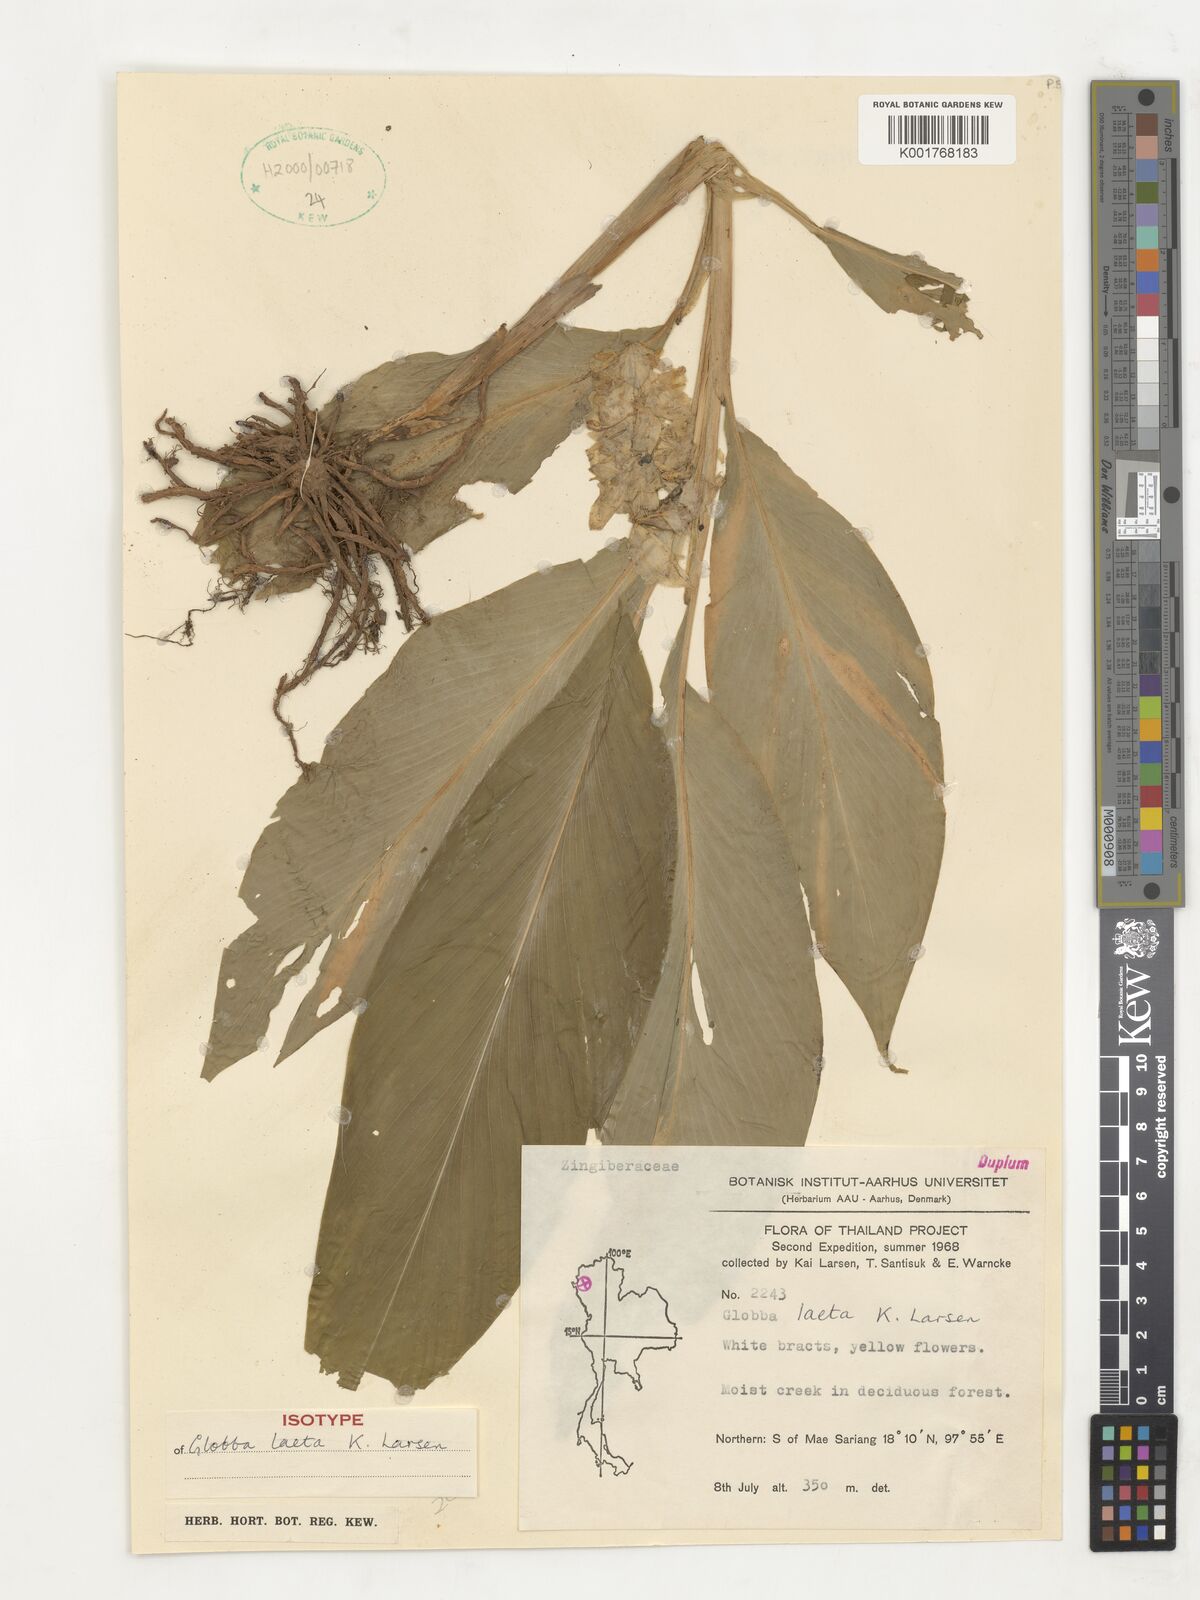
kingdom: Plantae
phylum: Tracheophyta
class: Liliopsida
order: Zingiberales
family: Zingiberaceae
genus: Globba
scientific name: Globba laeta
